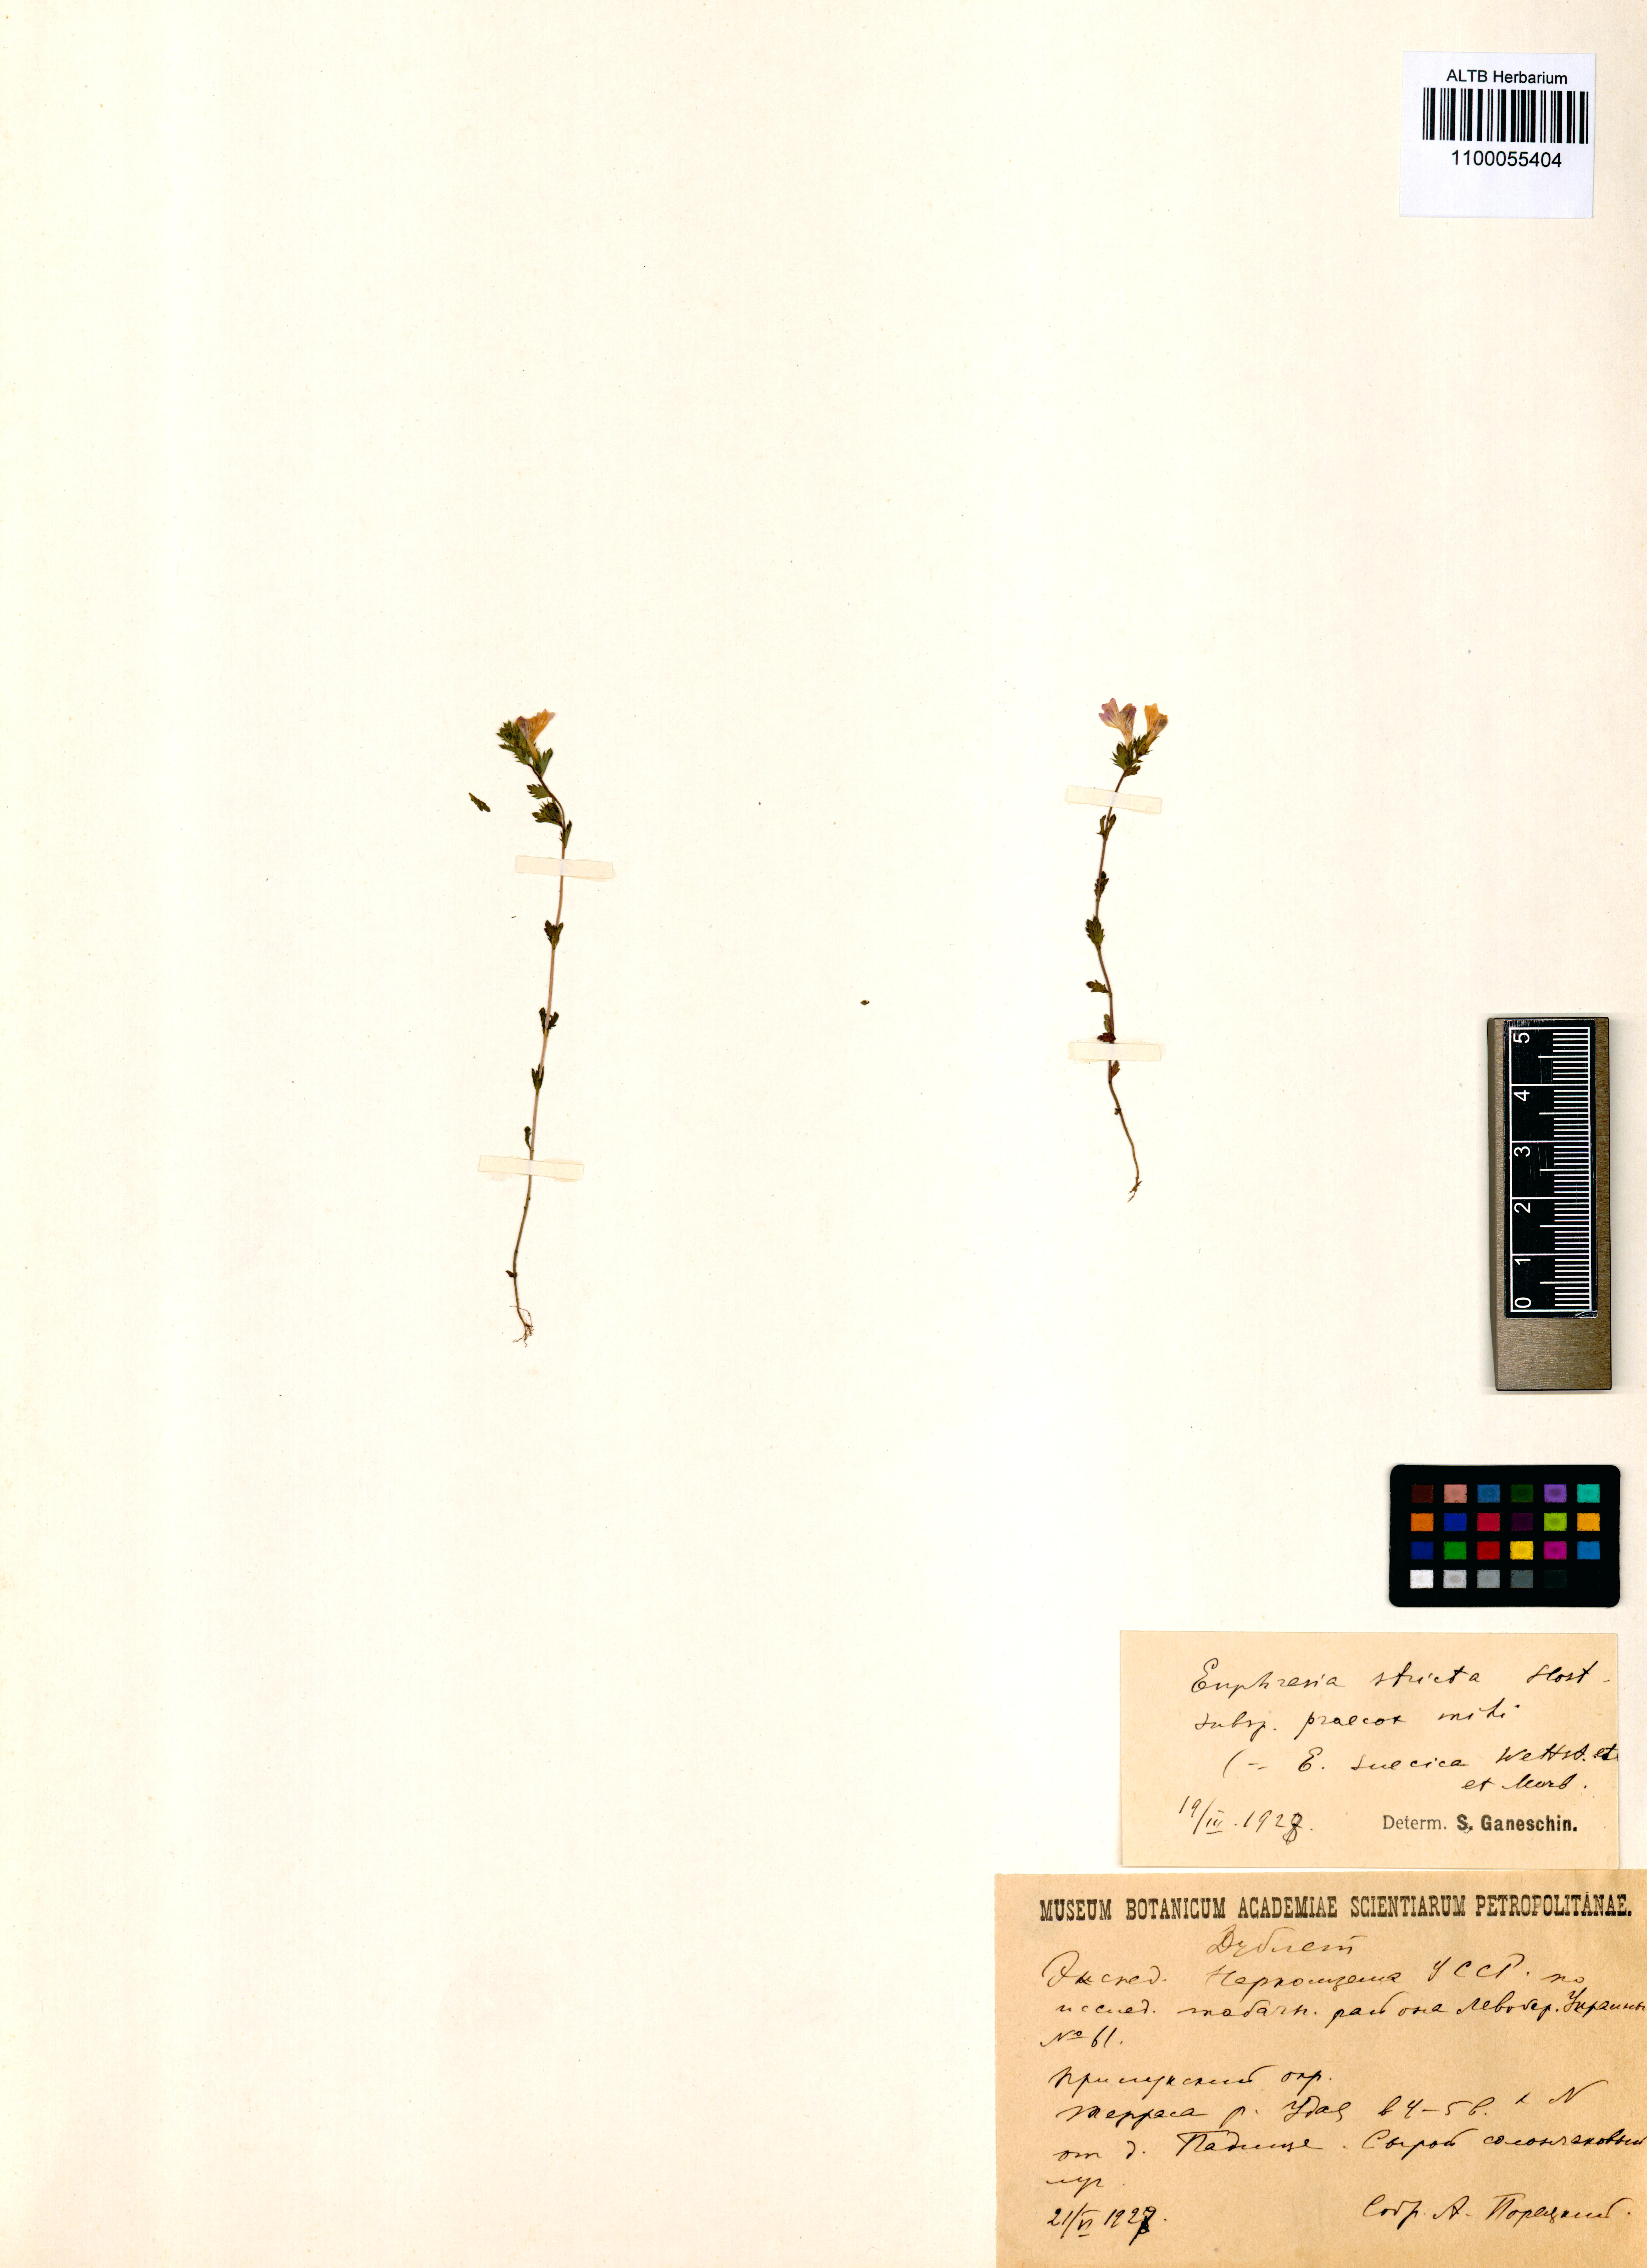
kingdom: Plantae
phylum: Tracheophyta
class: Magnoliopsida
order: Lamiales
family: Orobanchaceae
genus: Euphrasia
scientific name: Euphrasia officinalis
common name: Eyebright
